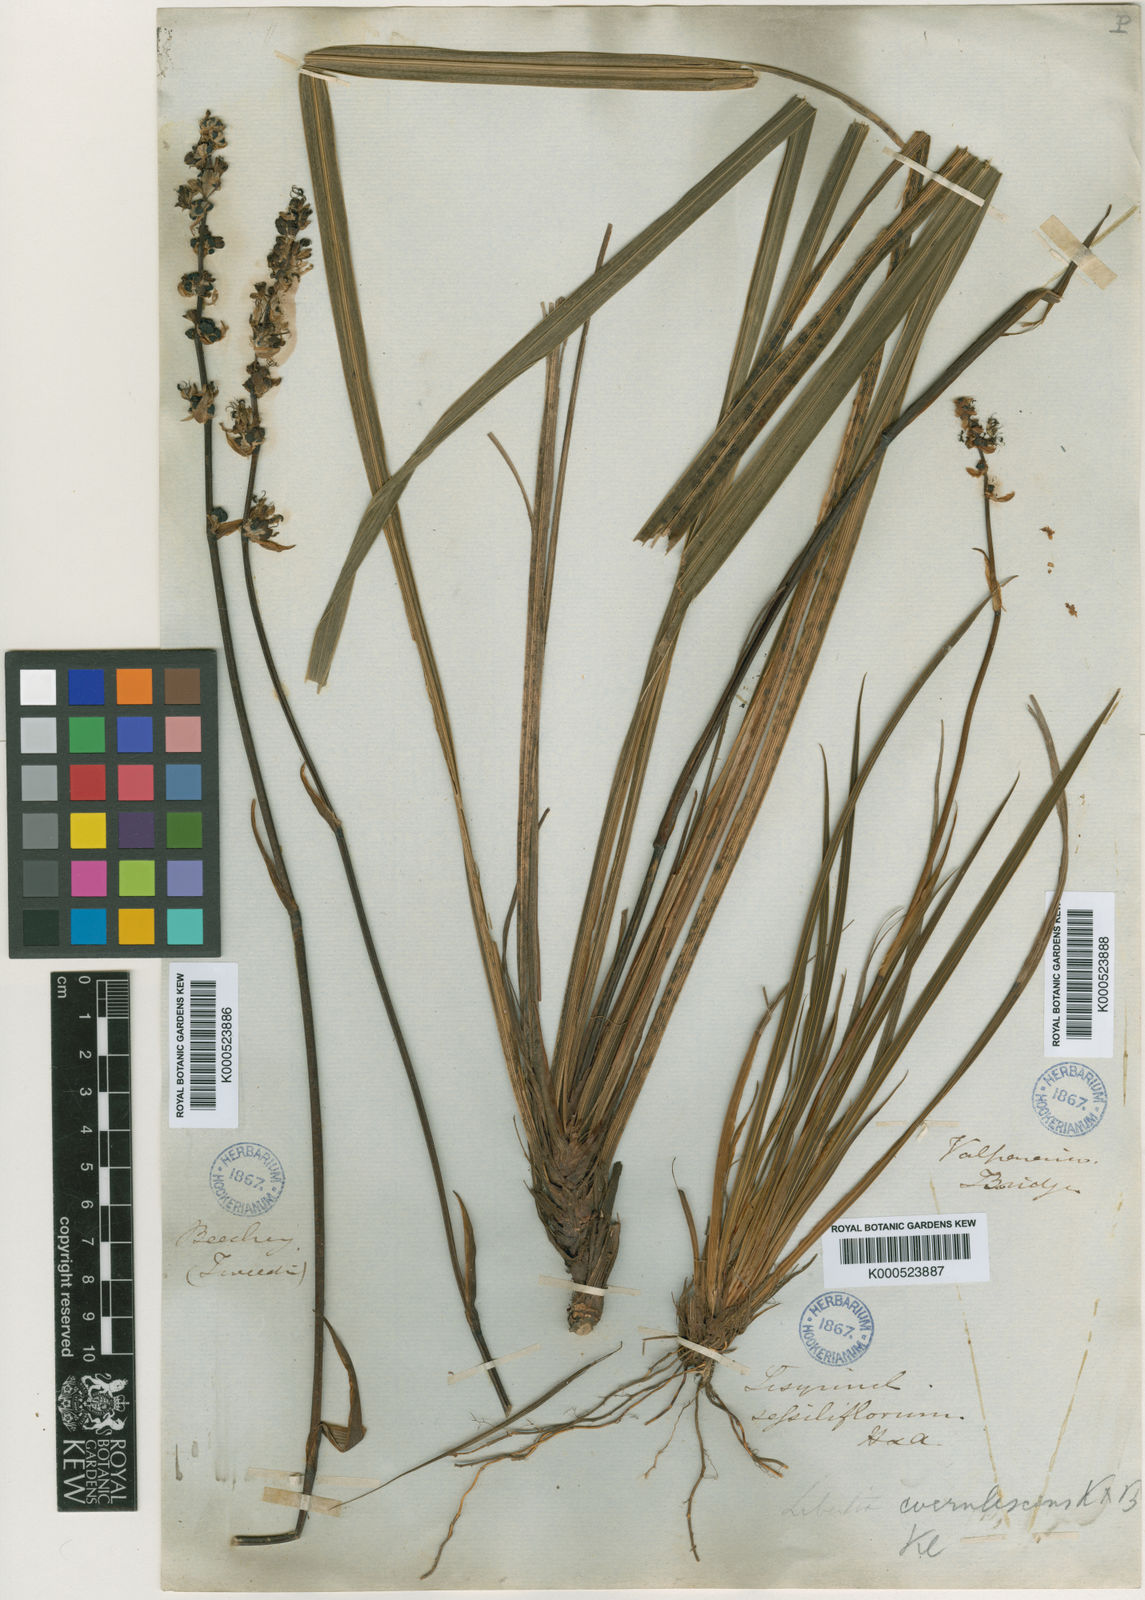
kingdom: Plantae
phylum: Tracheophyta
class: Liliopsida
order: Asparagales
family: Iridaceae
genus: Libertia
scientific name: Libertia sessiliflora
